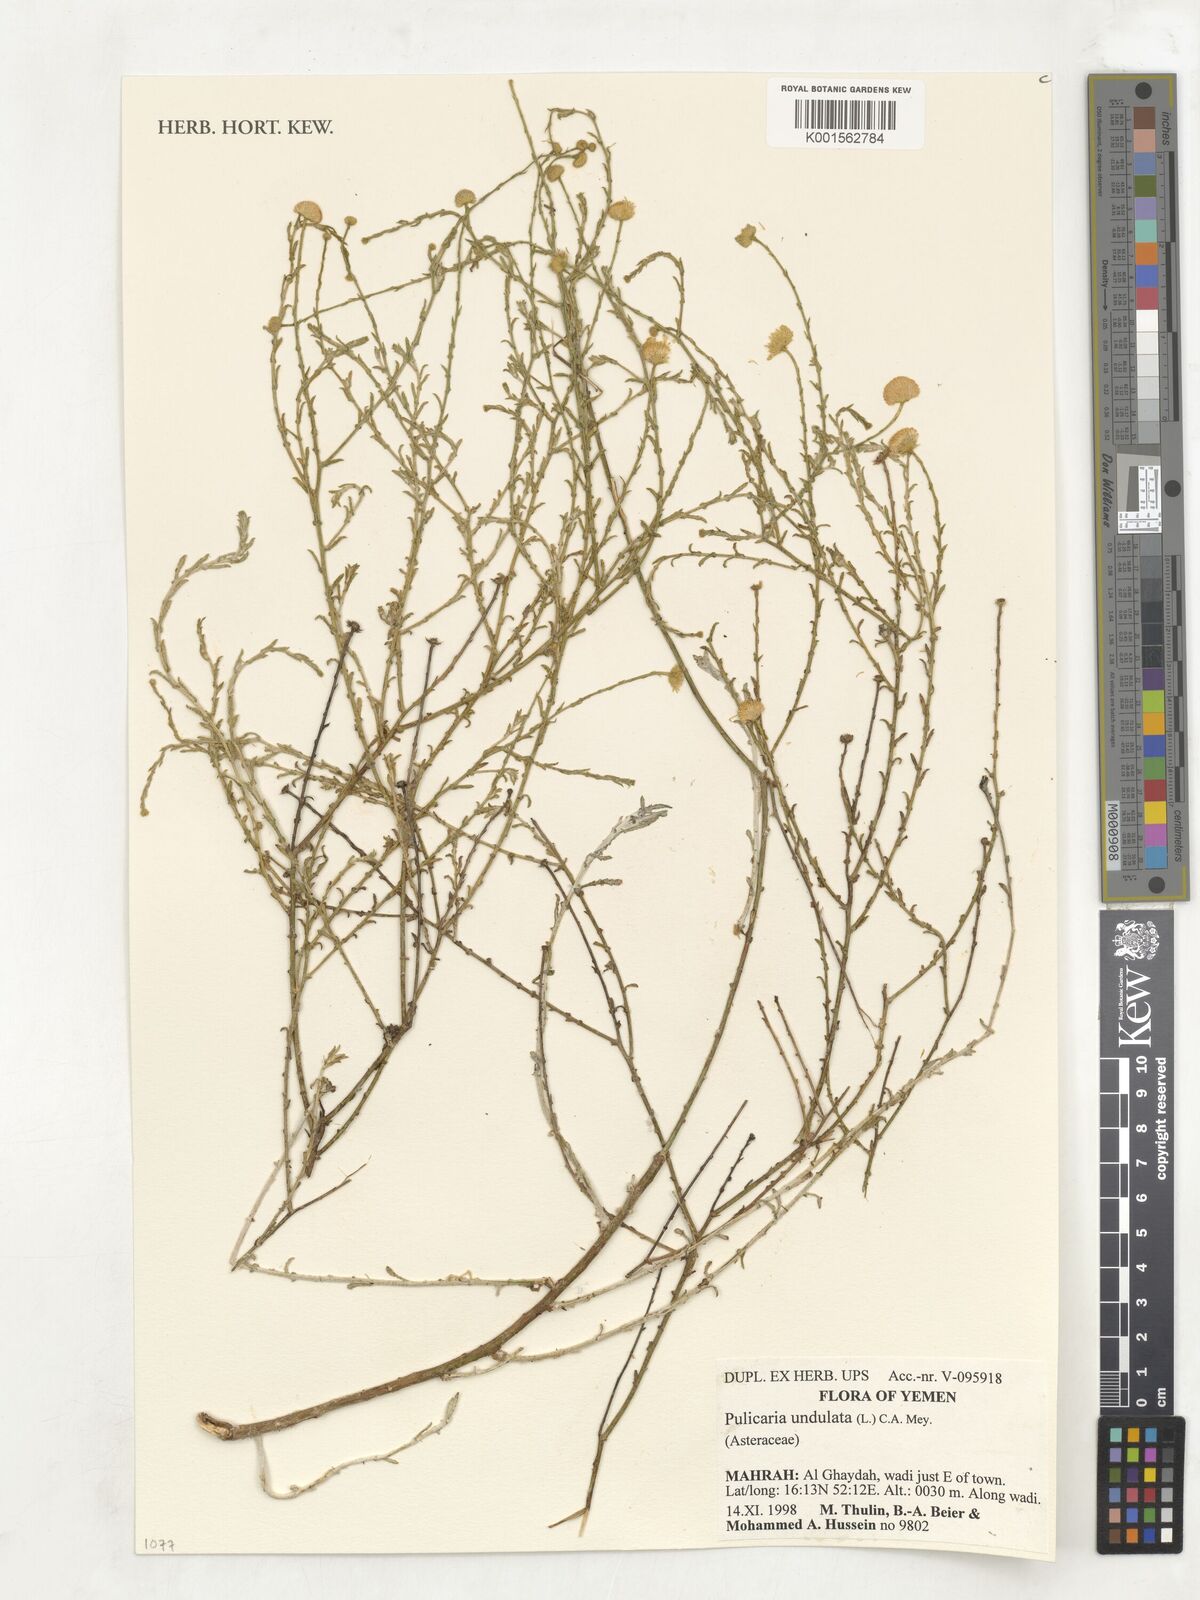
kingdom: Plantae
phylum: Tracheophyta
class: Magnoliopsida
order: Asterales
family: Asteraceae
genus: Pulicaria
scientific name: Pulicaria undulata
